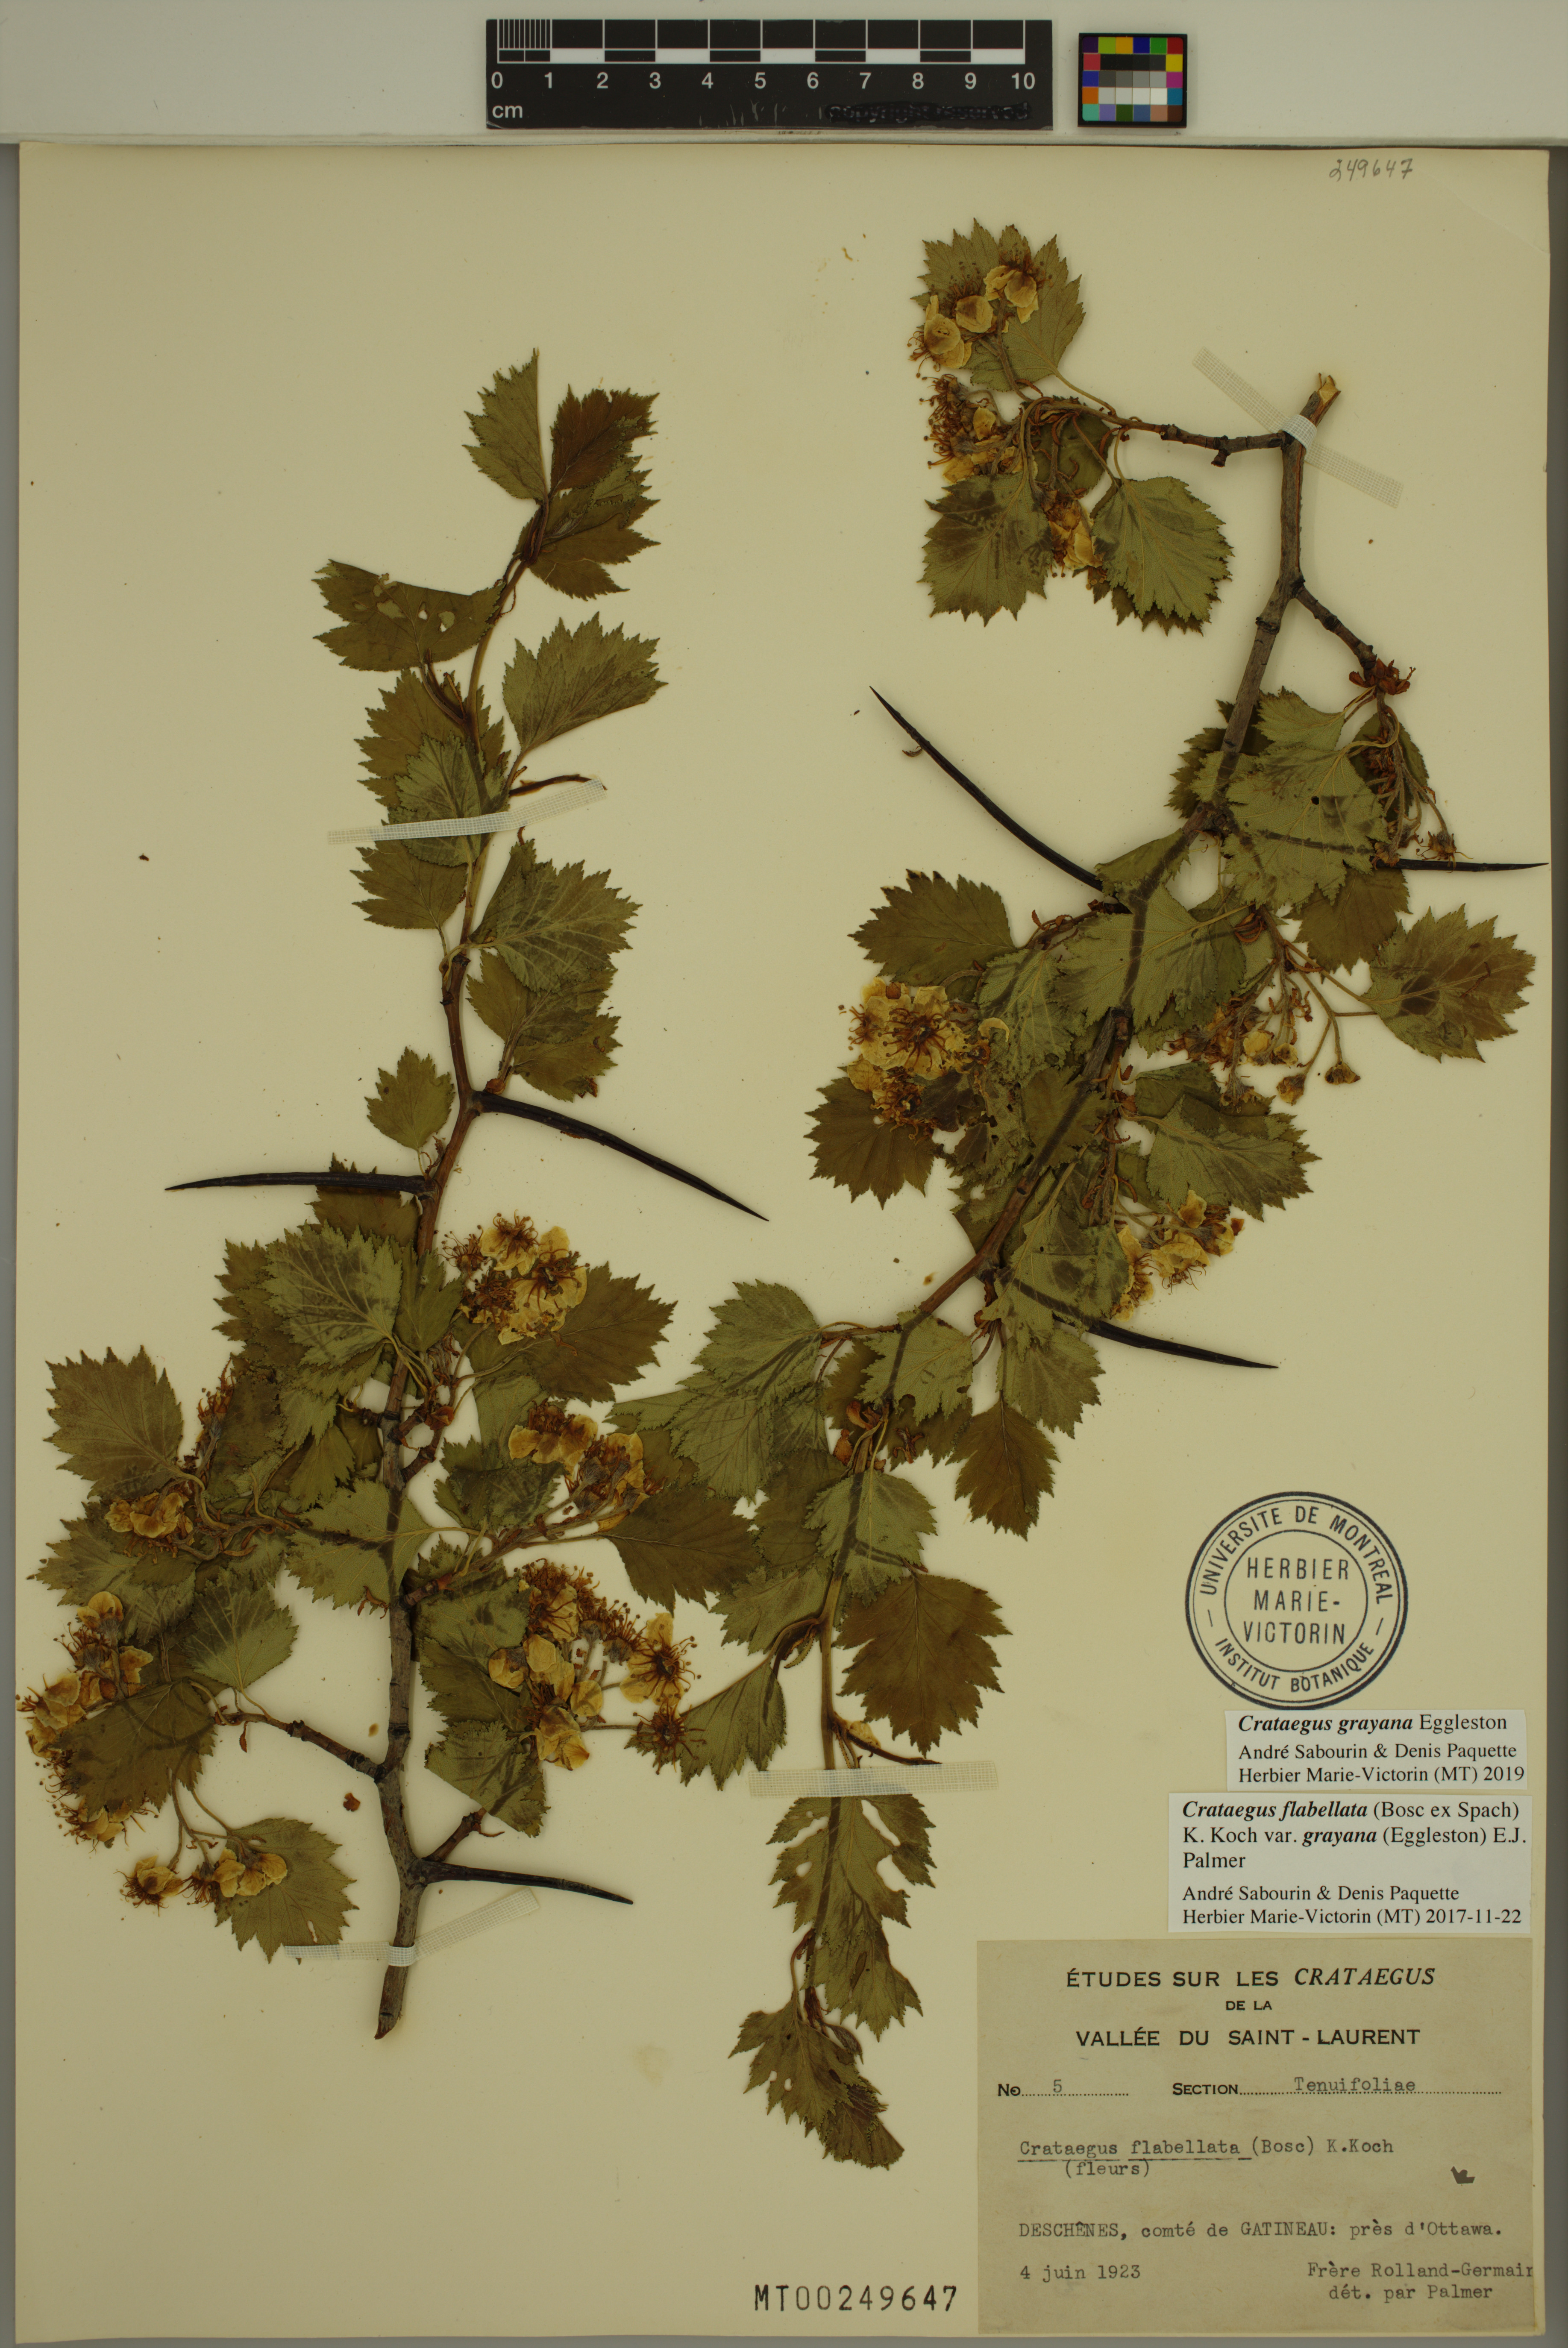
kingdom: Plantae
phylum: Tracheophyta
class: Magnoliopsida
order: Rosales
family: Rosaceae
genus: Crataegus
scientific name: Crataegus schuettei
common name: Schuette's hawthorn
